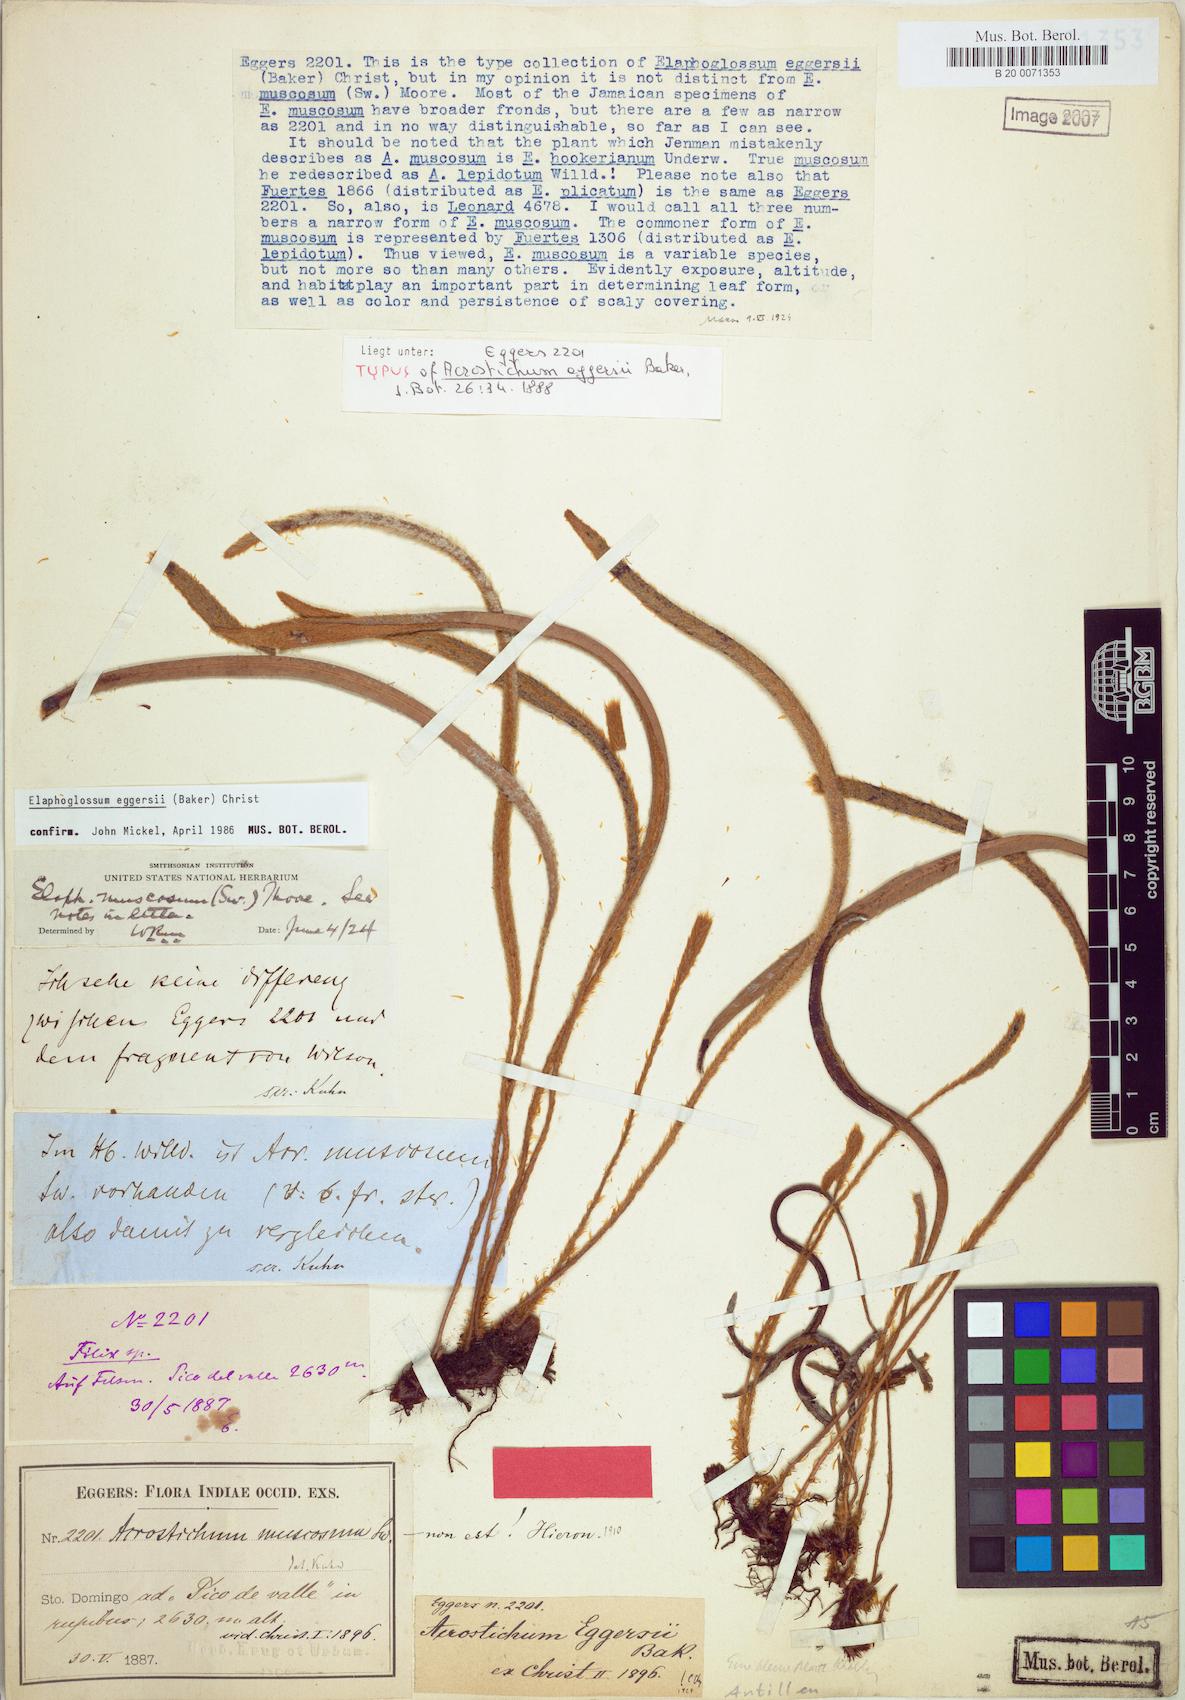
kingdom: Plantae
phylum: Tracheophyta
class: Polypodiopsida
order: Polypodiales
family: Dryopteridaceae
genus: Elaphoglossum
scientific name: Elaphoglossum eggersii
